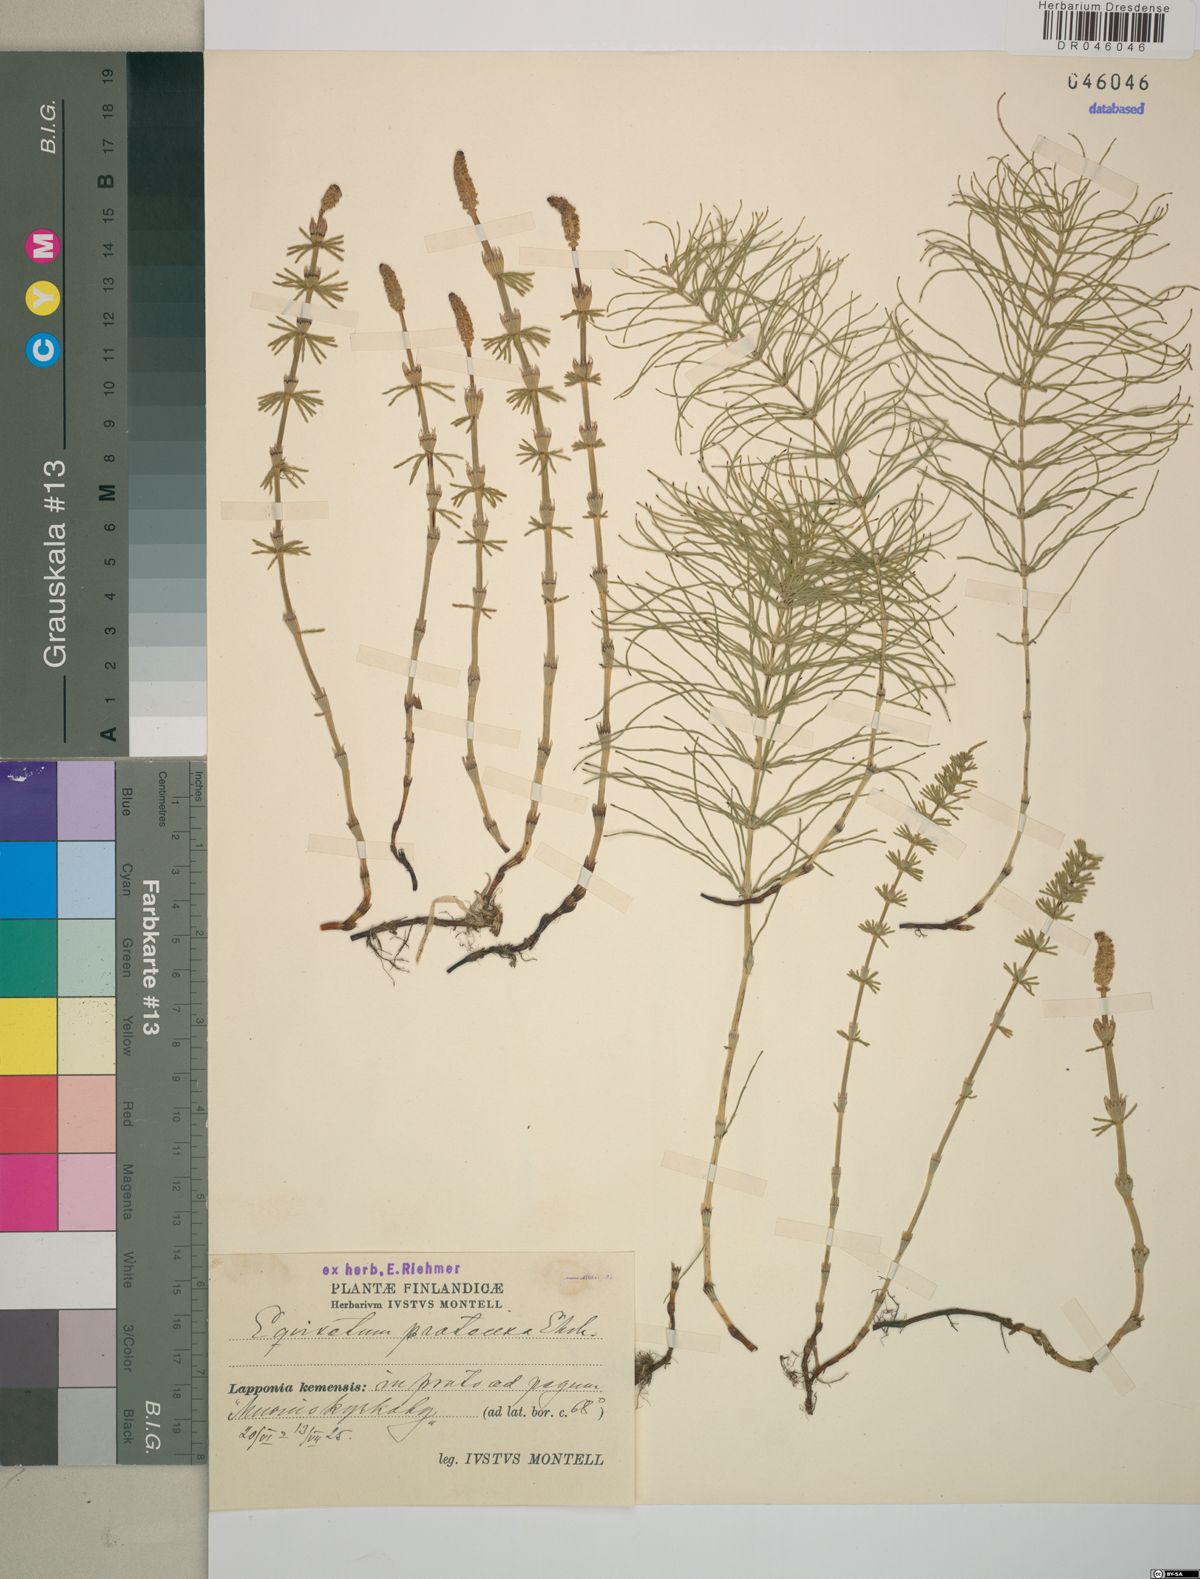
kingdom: Plantae
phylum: Tracheophyta
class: Polypodiopsida
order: Equisetales
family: Equisetaceae
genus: Equisetum
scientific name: Equisetum pratense
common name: Meadow horsetail
